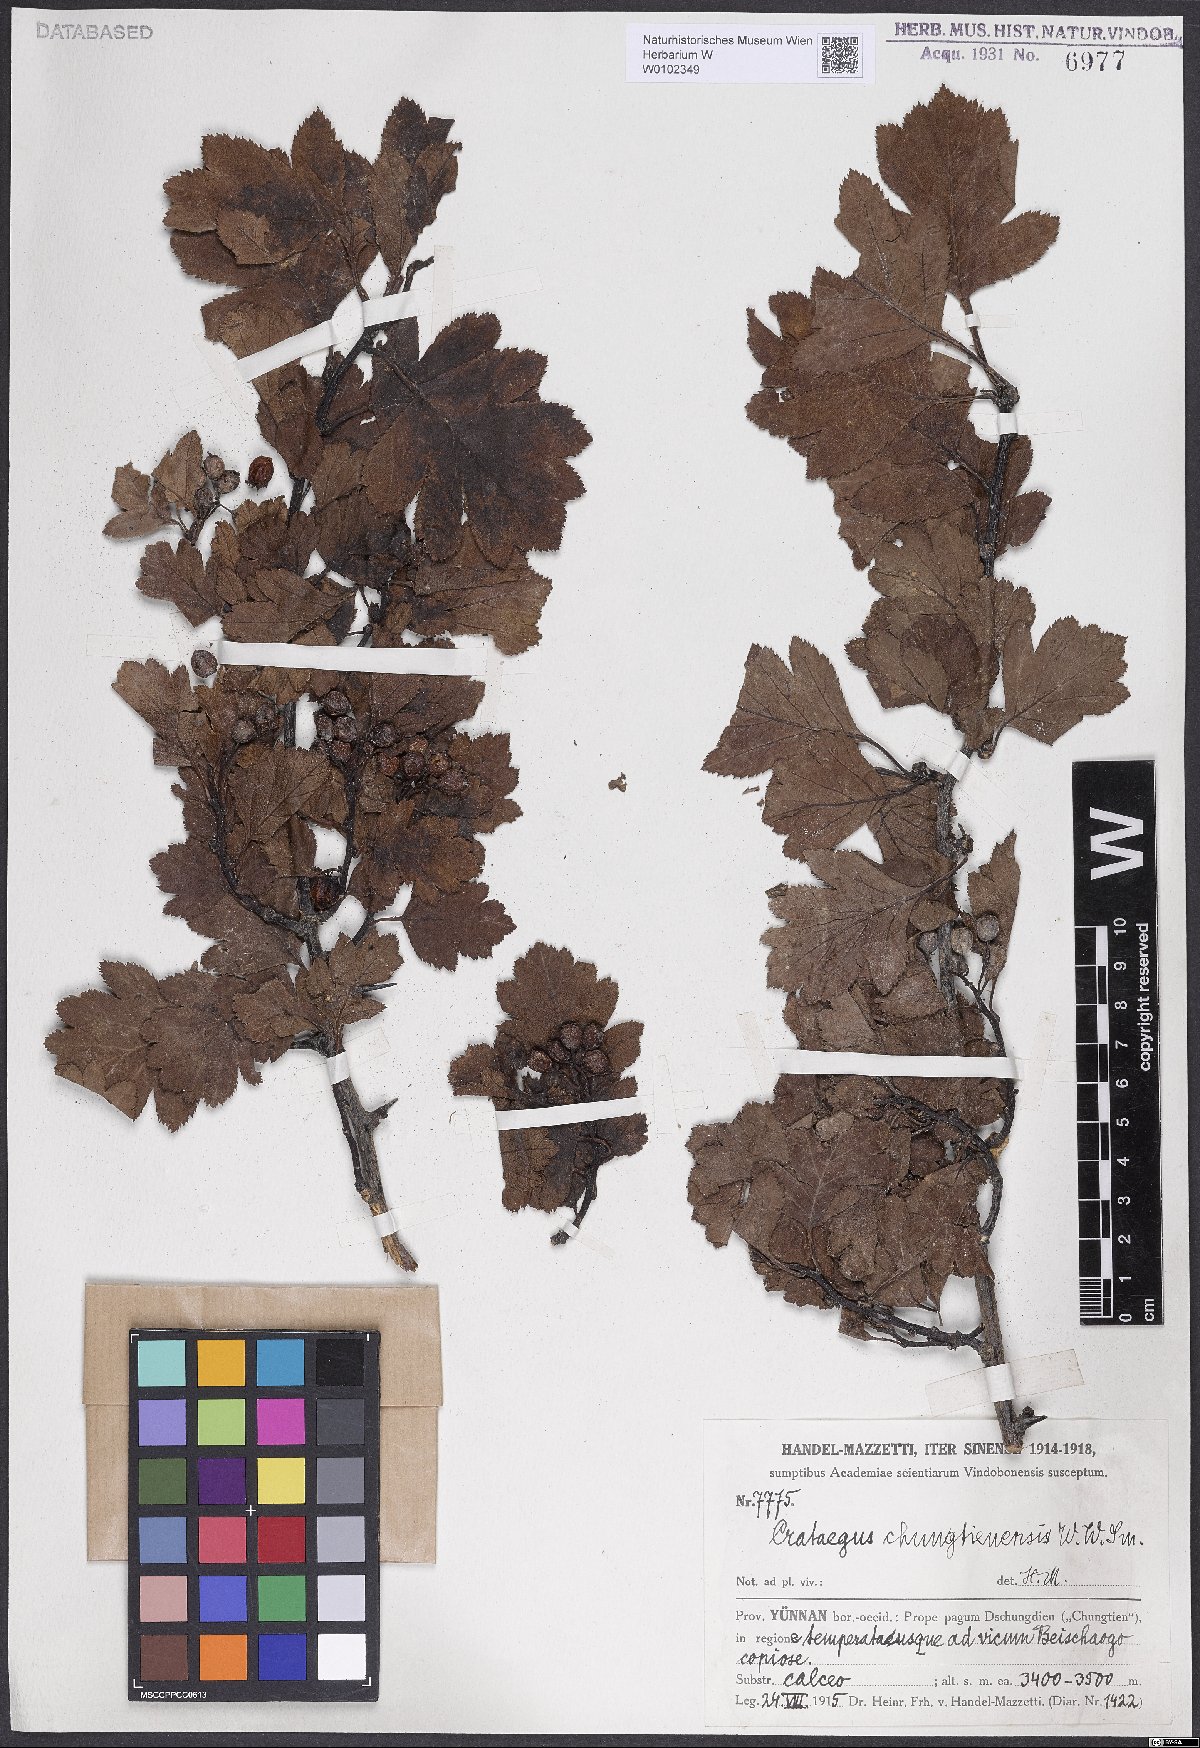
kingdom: Plantae
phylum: Tracheophyta
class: Magnoliopsida
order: Rosales
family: Rosaceae
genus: Crataegus
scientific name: Crataegus chungtienensis
